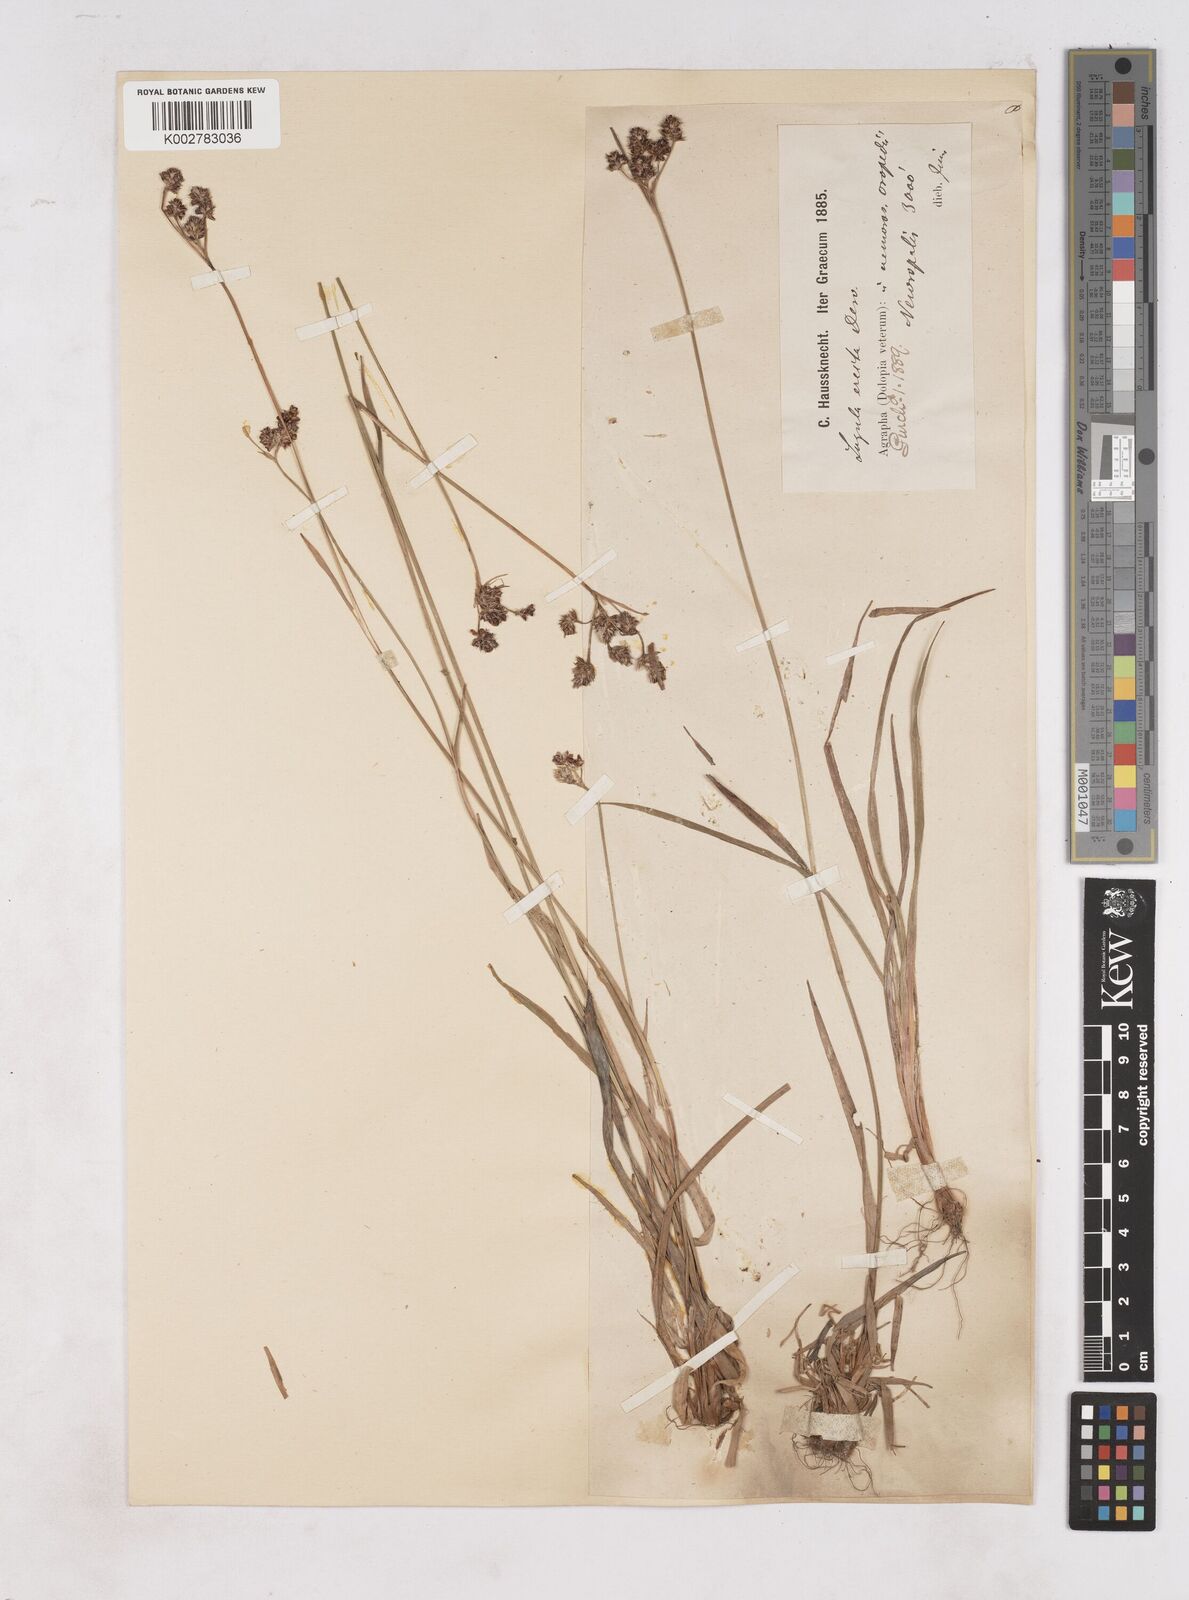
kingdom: Plantae
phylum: Tracheophyta
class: Liliopsida
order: Poales
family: Juncaceae
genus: Luzula
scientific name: Luzula campestris
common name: Field wood-rush
